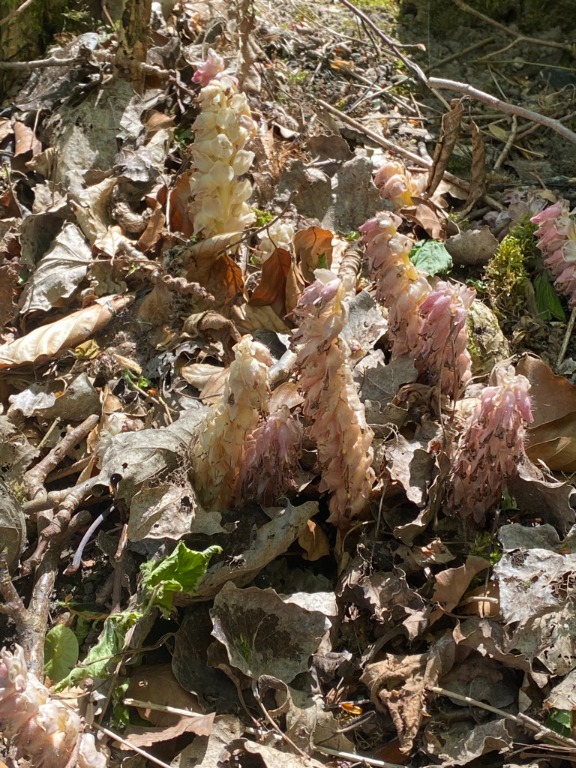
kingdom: Plantae
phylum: Tracheophyta
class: Magnoliopsida
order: Lamiales
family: Orobanchaceae
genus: Lathraea
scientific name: Lathraea squamaria
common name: Skælrod
